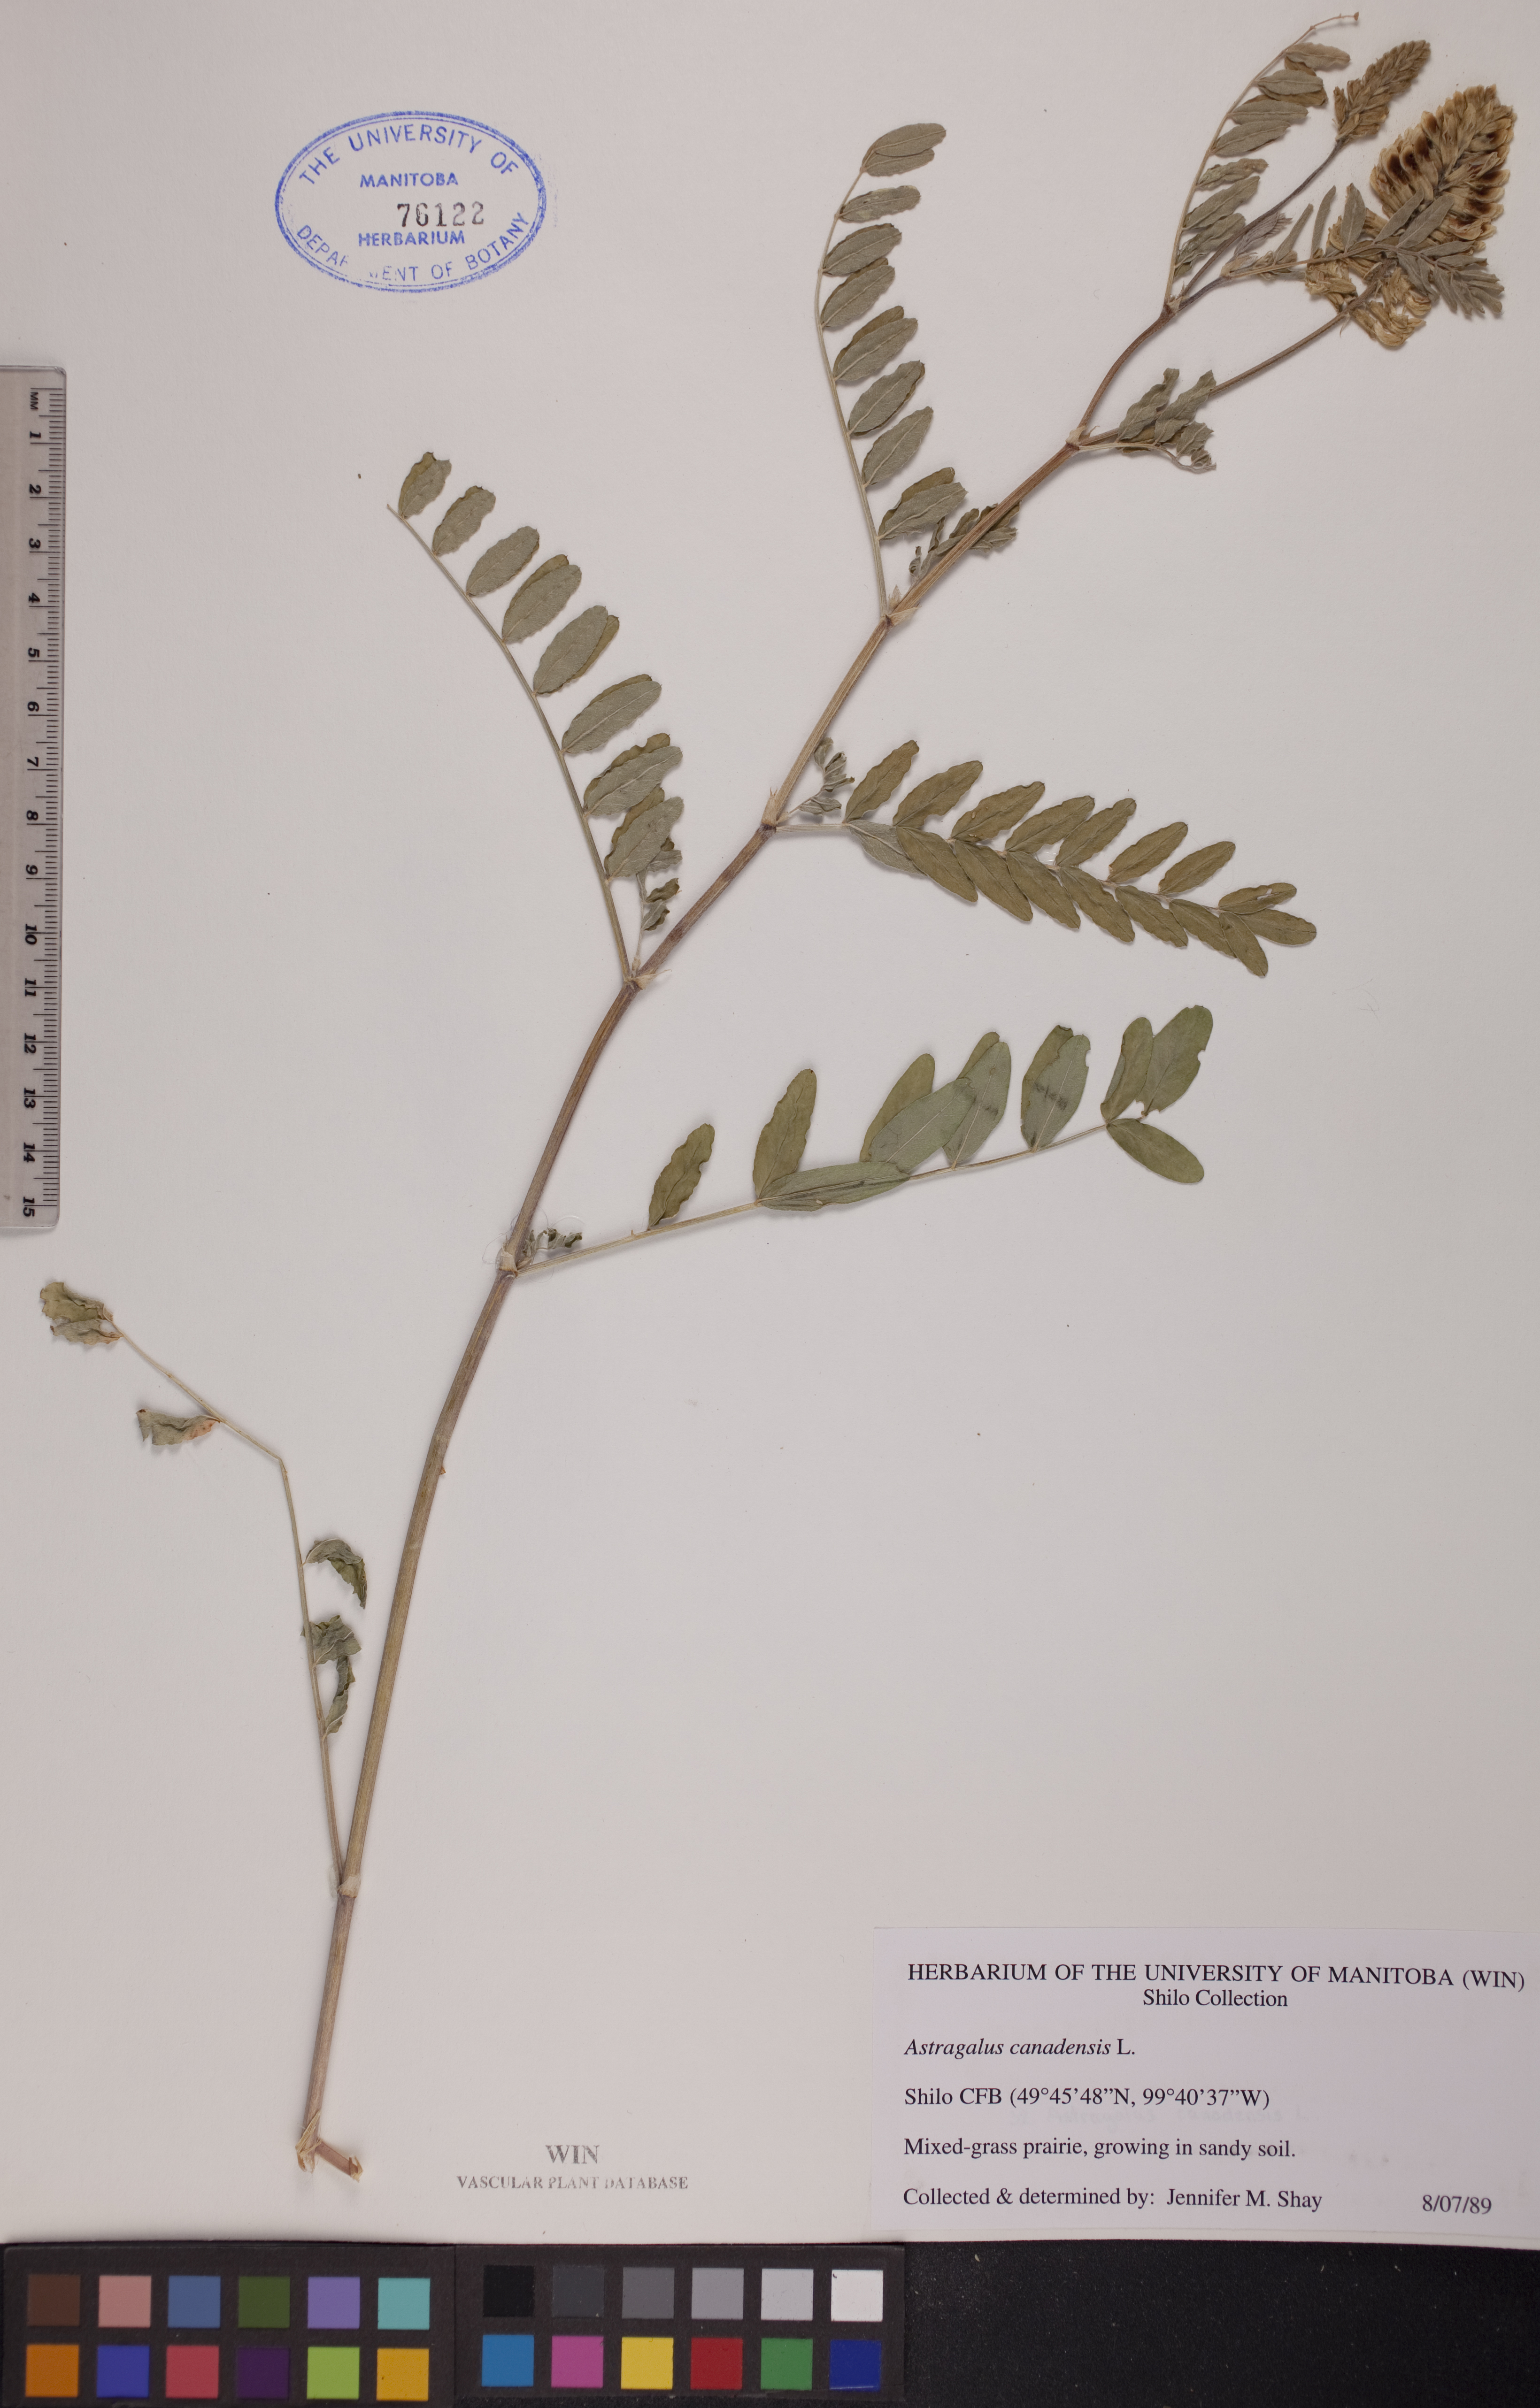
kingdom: Plantae
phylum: Tracheophyta
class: Magnoliopsida
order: Fabales
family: Fabaceae
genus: Astragalus
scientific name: Astragalus canadensis
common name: Canada milk-vetch
